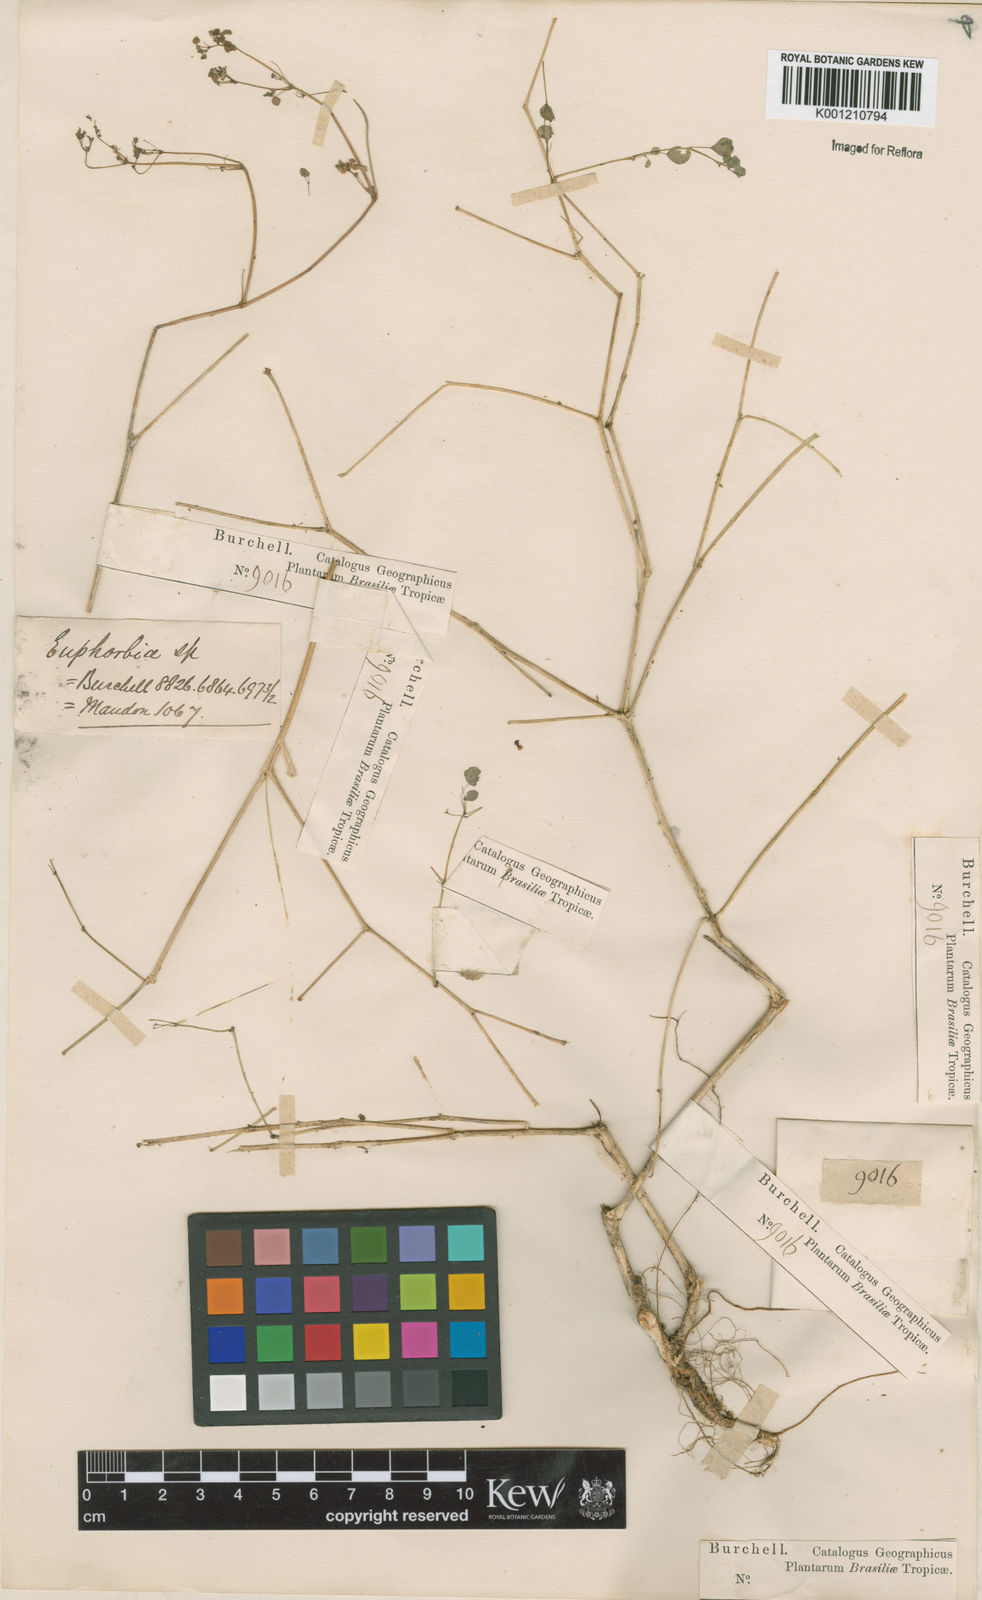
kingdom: Plantae
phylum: Tracheophyta
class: Magnoliopsida
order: Malpighiales
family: Euphorbiaceae
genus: Euphorbia
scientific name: Euphorbia ocymoidea
